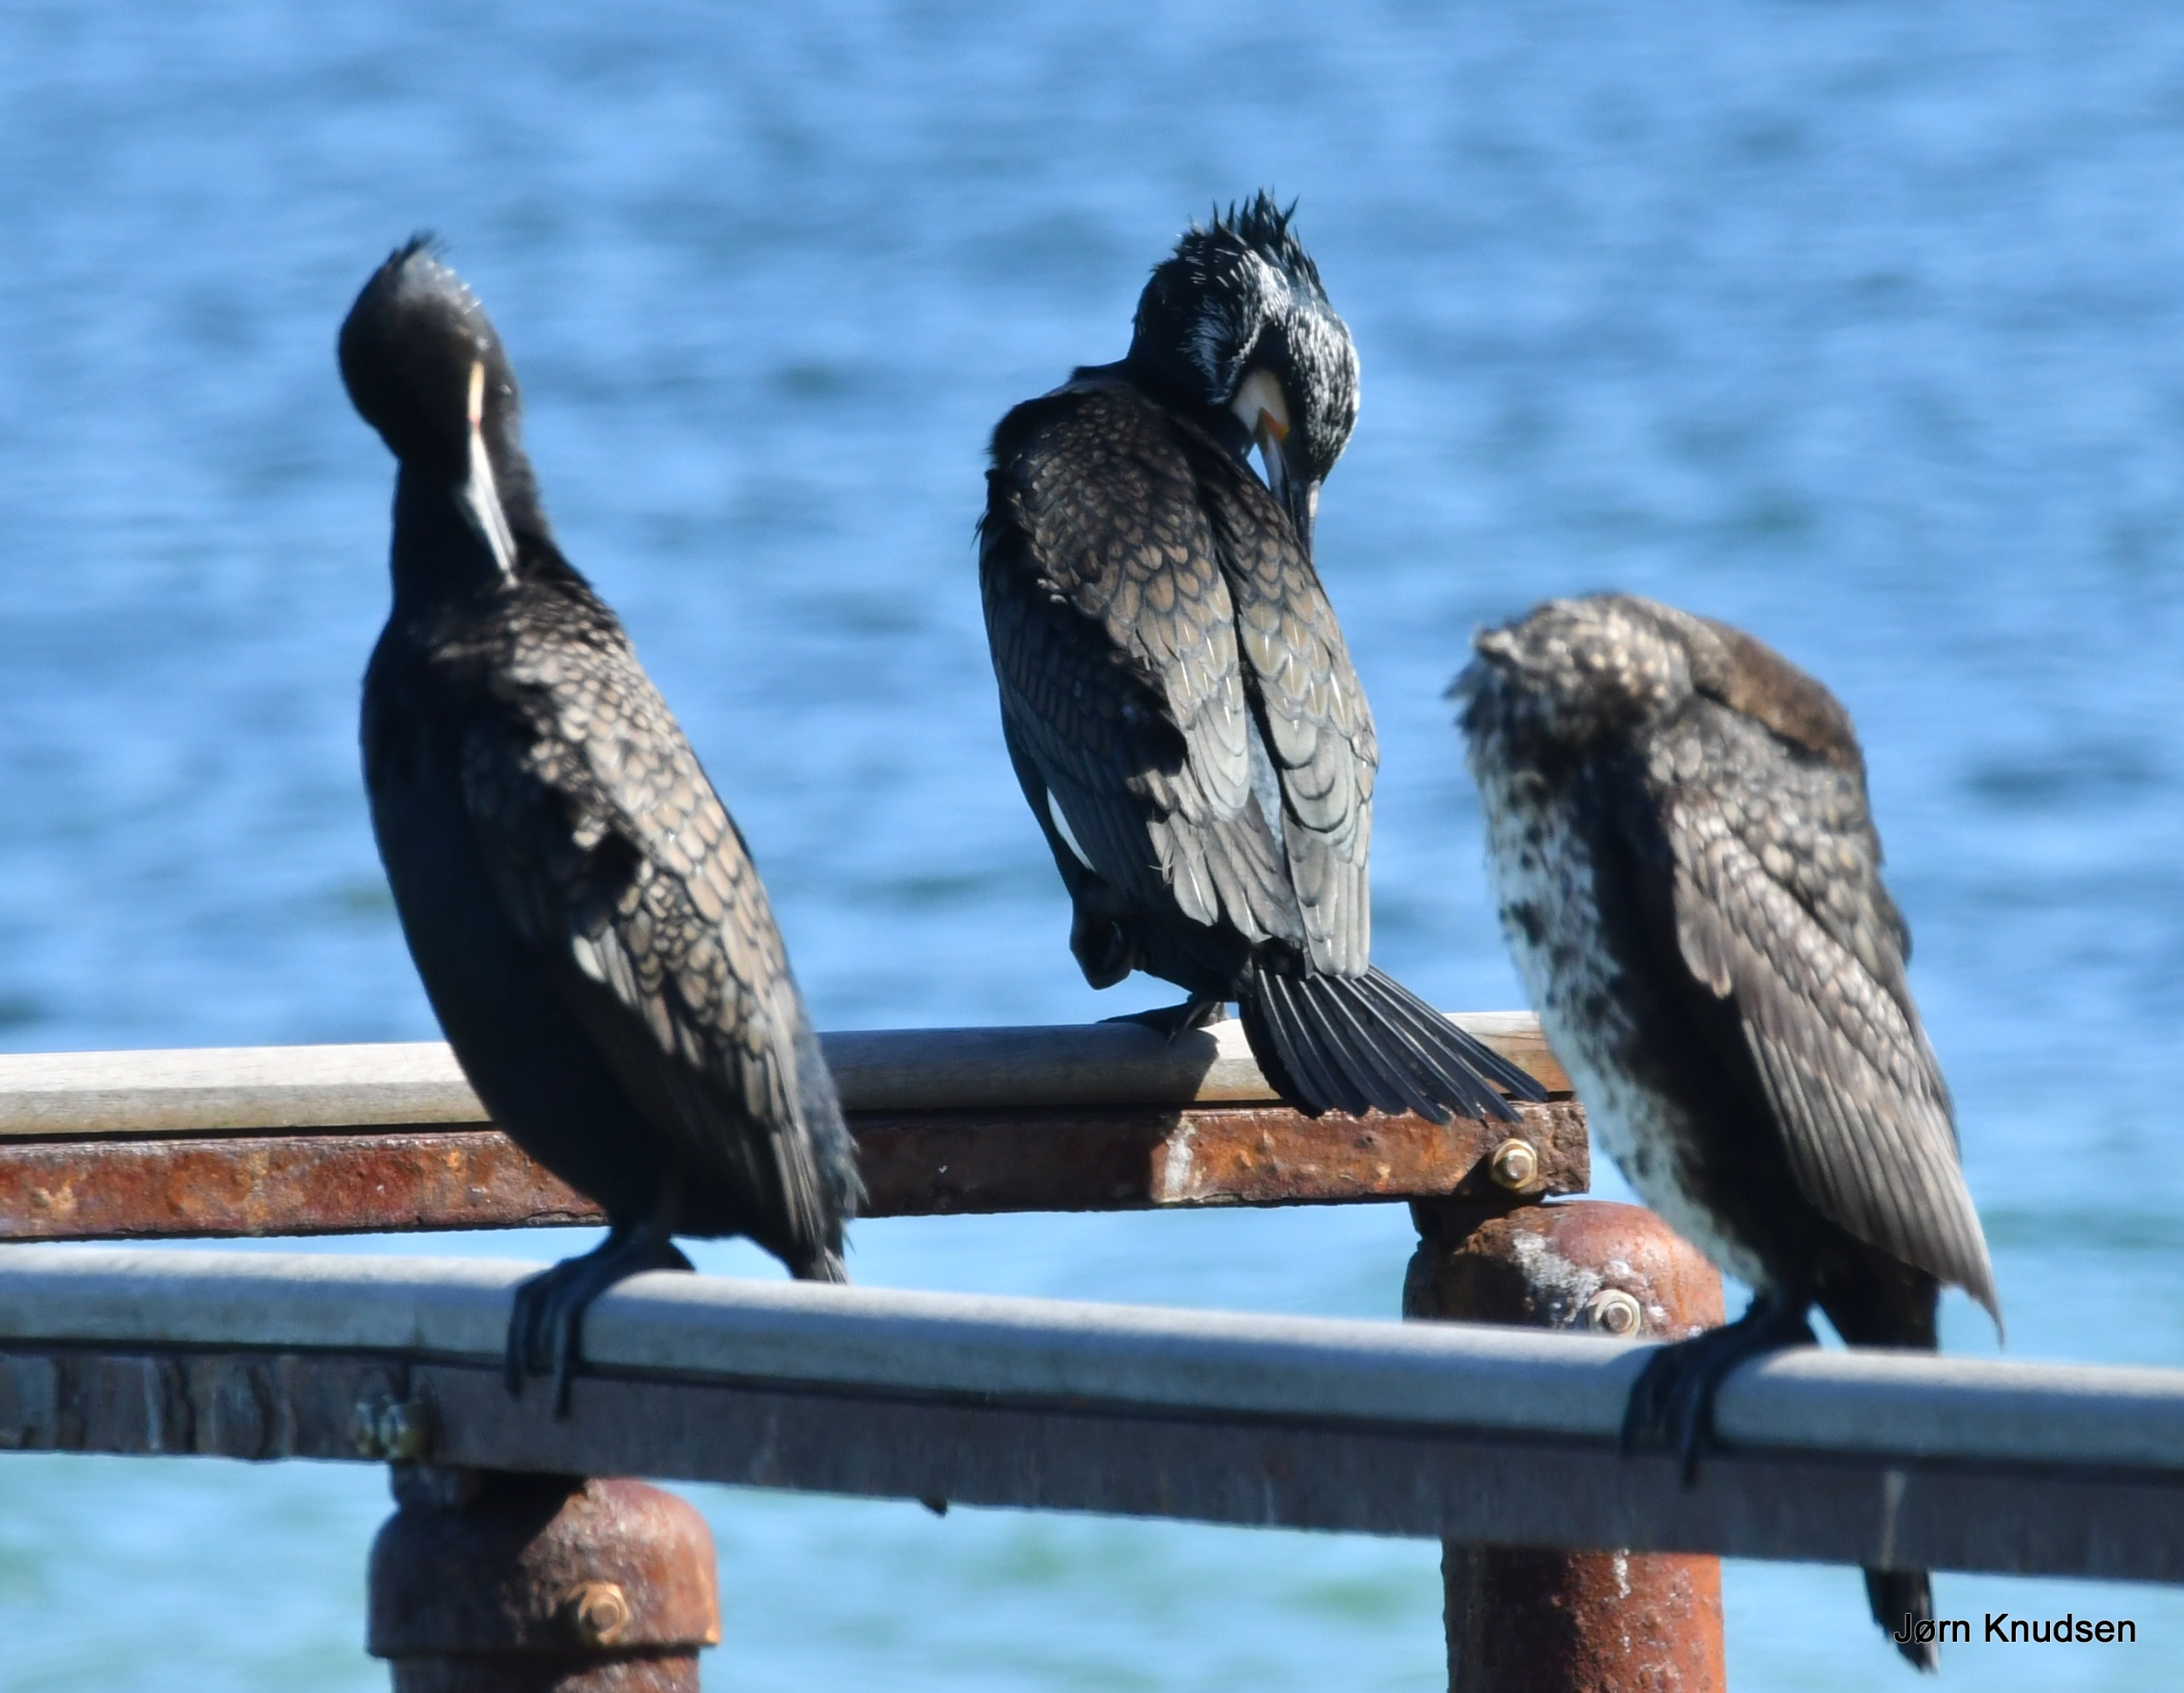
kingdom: Animalia
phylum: Chordata
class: Aves
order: Suliformes
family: Phalacrocoracidae
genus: Phalacrocorax
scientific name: Phalacrocorax carbo
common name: Skarv
